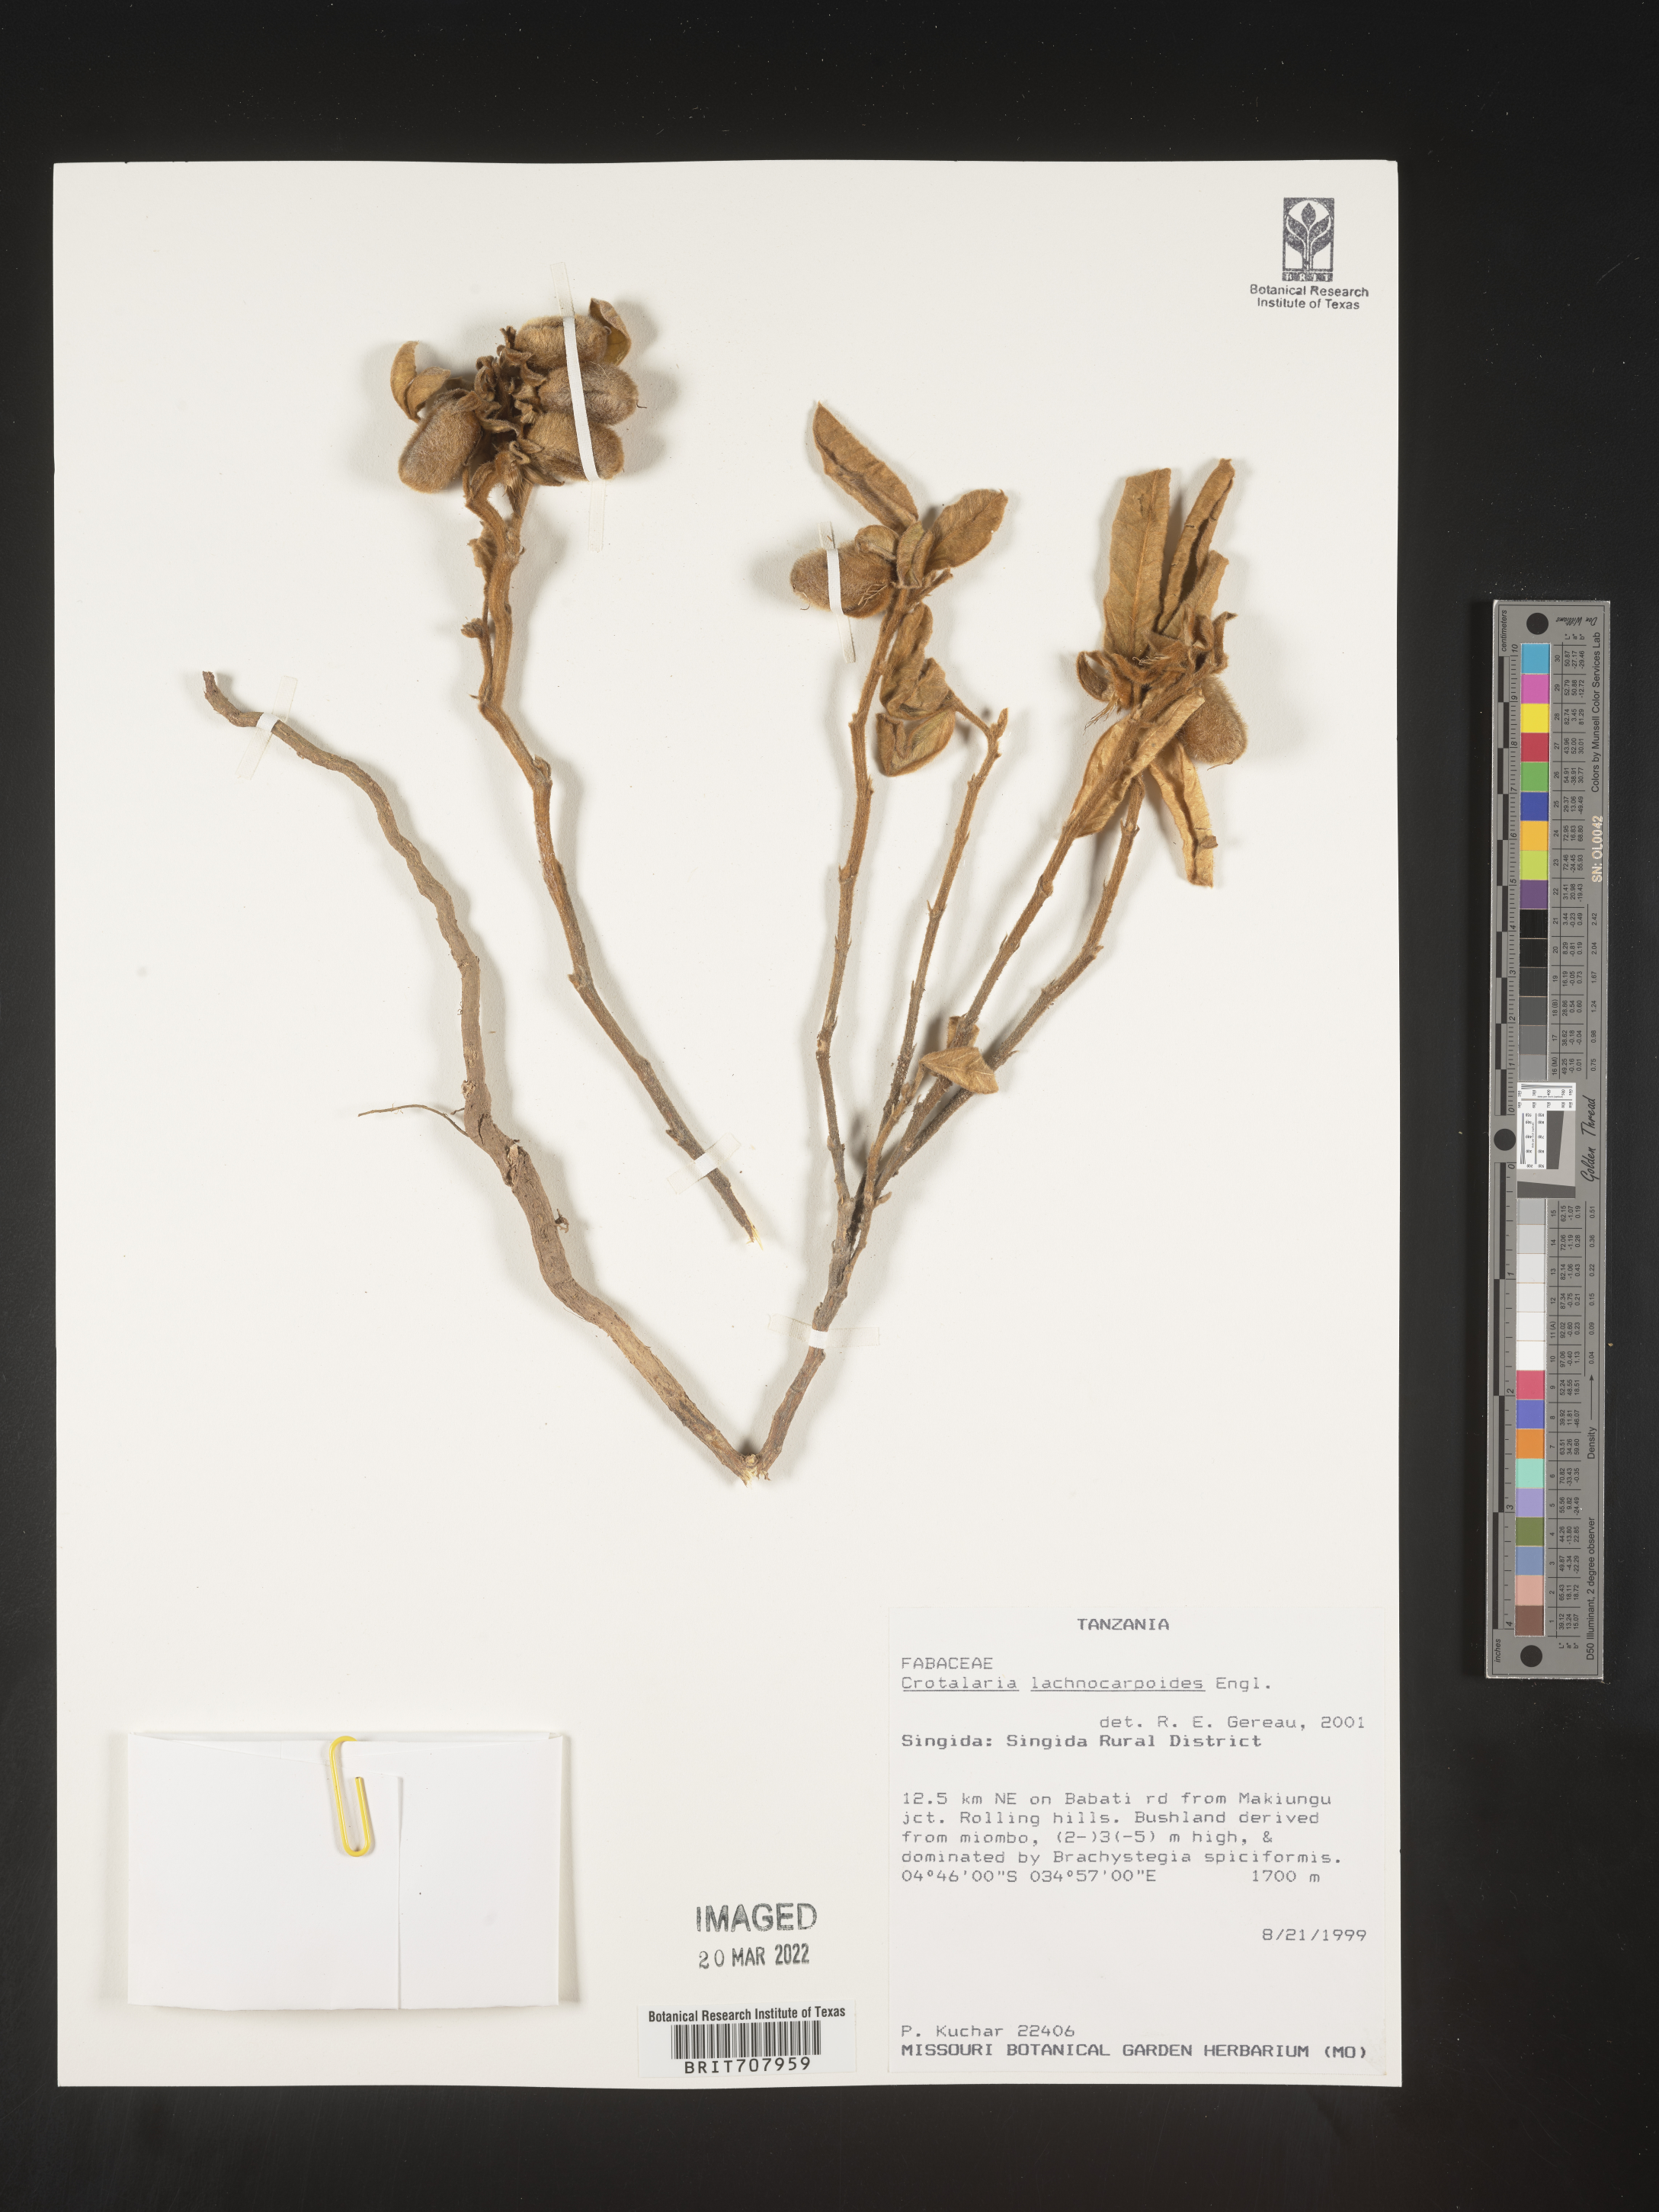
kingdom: Plantae
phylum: Tracheophyta
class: Magnoliopsida
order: Fabales
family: Fabaceae
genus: Crotalaria
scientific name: Crotalaria
